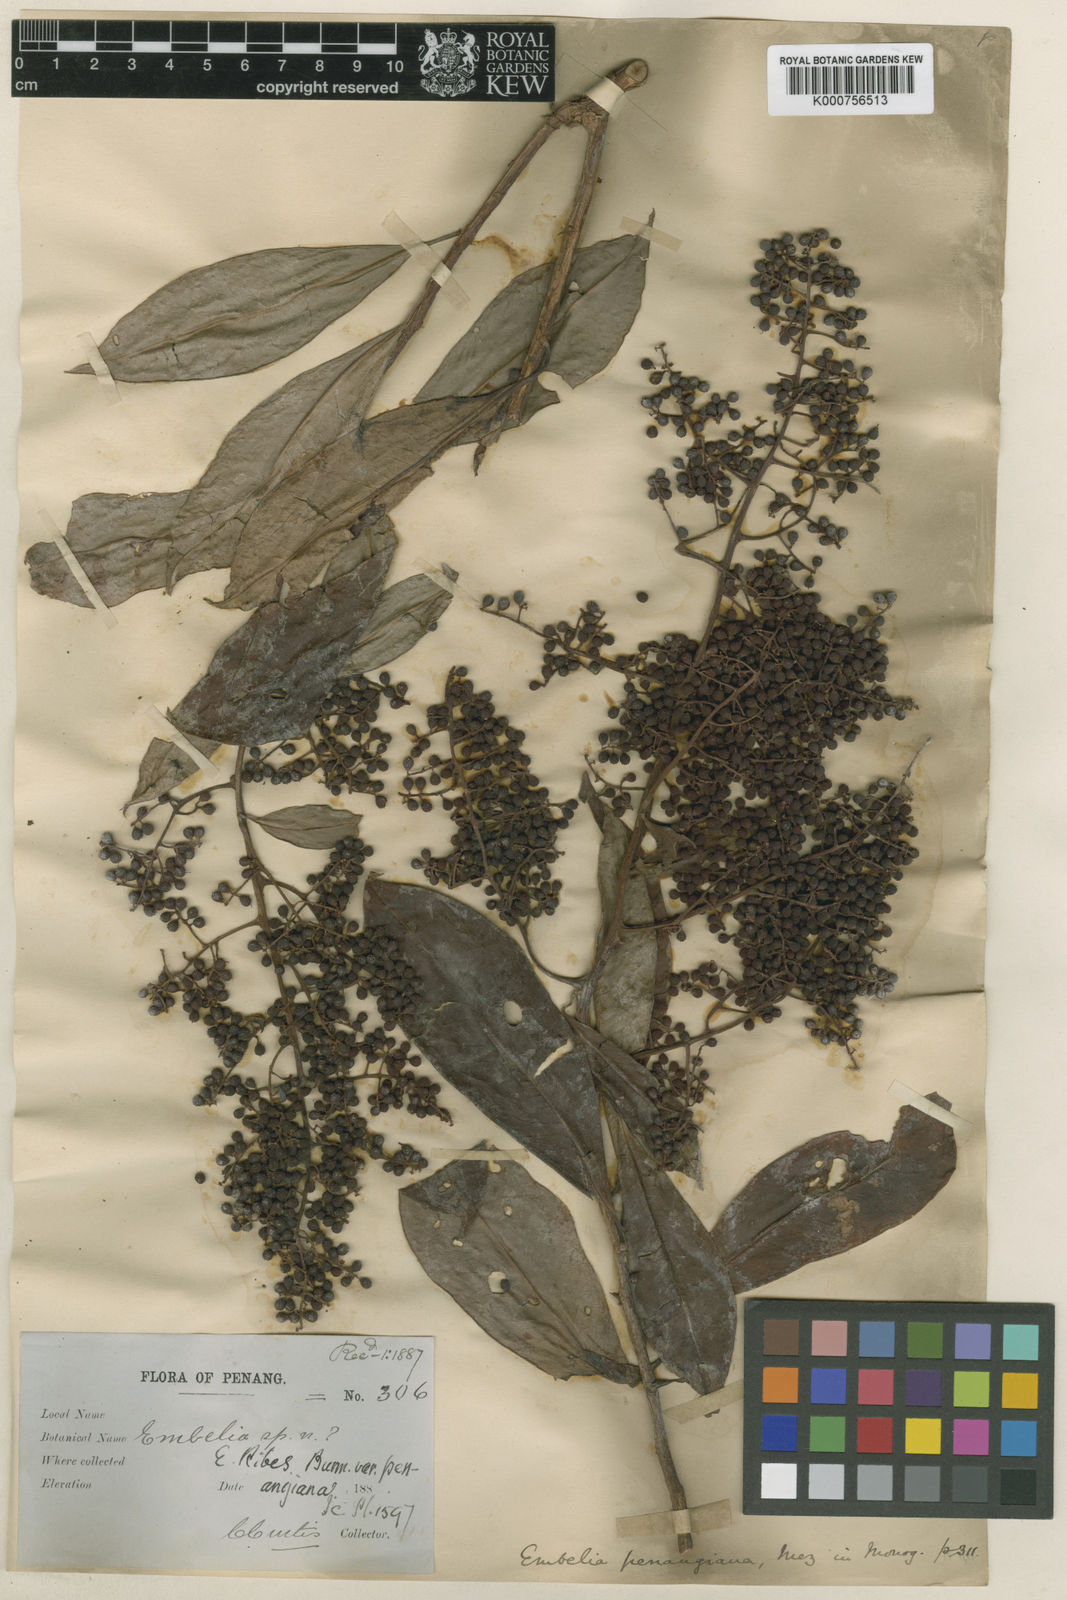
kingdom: Plantae
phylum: Tracheophyta
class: Magnoliopsida
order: Ericales
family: Primulaceae
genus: Embelia
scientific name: Embelia penangiana
